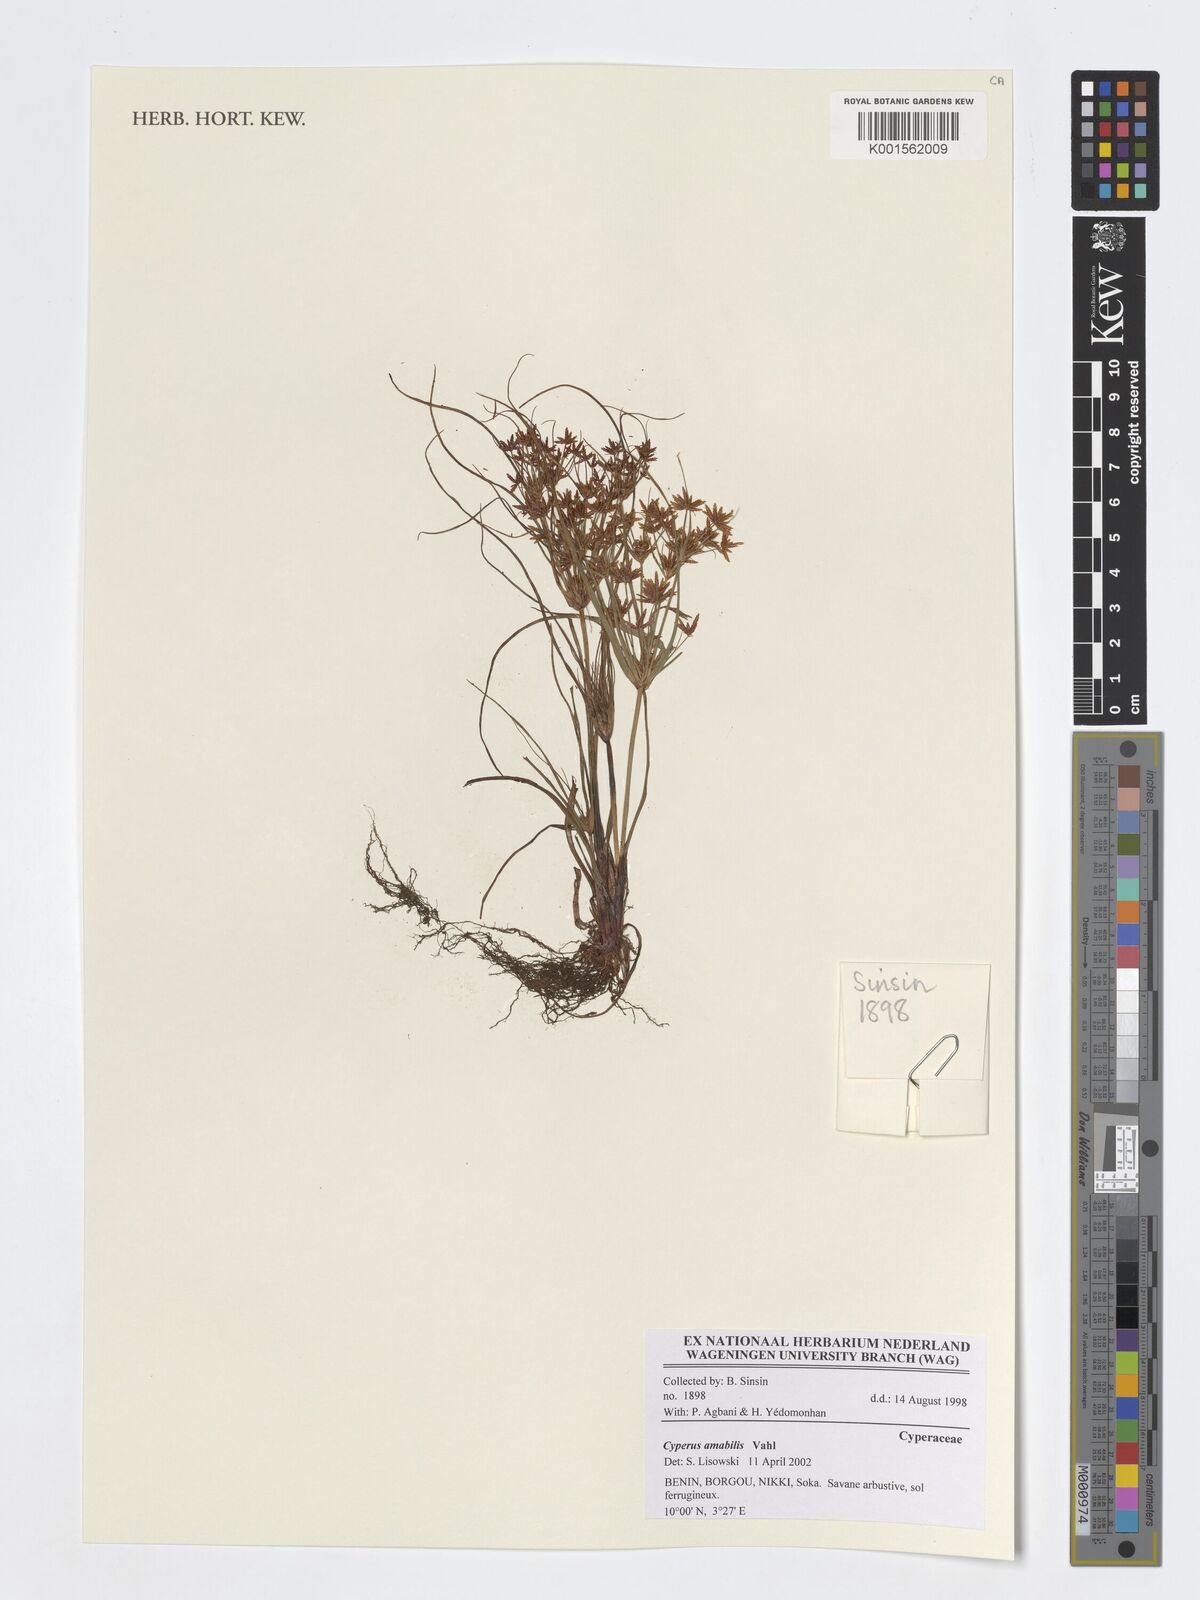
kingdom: Plantae
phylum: Tracheophyta
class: Liliopsida
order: Poales
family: Cyperaceae
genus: Cyperus
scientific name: Cyperus amabilis
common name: Foothill flat sedge
